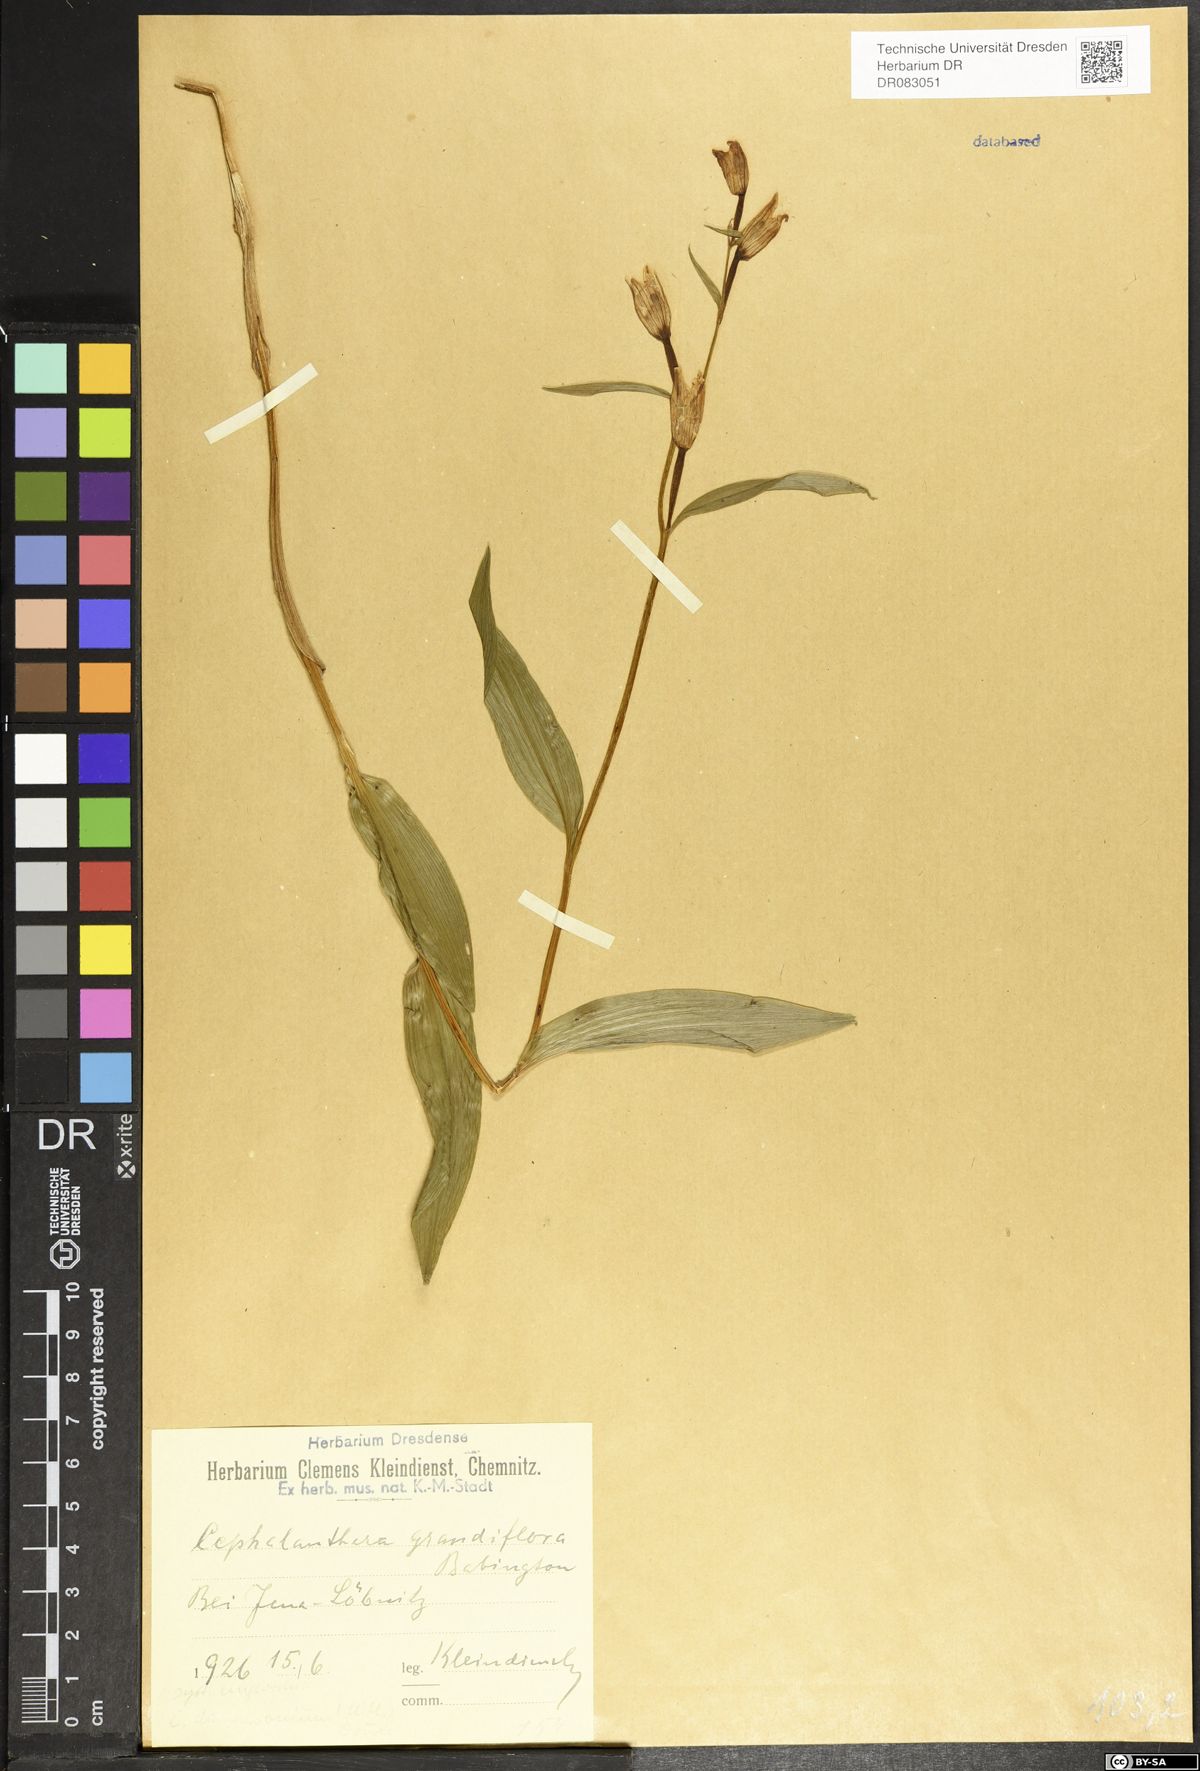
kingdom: Plantae
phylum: Tracheophyta
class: Liliopsida
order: Asparagales
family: Orchidaceae
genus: Cephalanthera
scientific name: Cephalanthera longifolia
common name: Narrow-leaved helleborine
